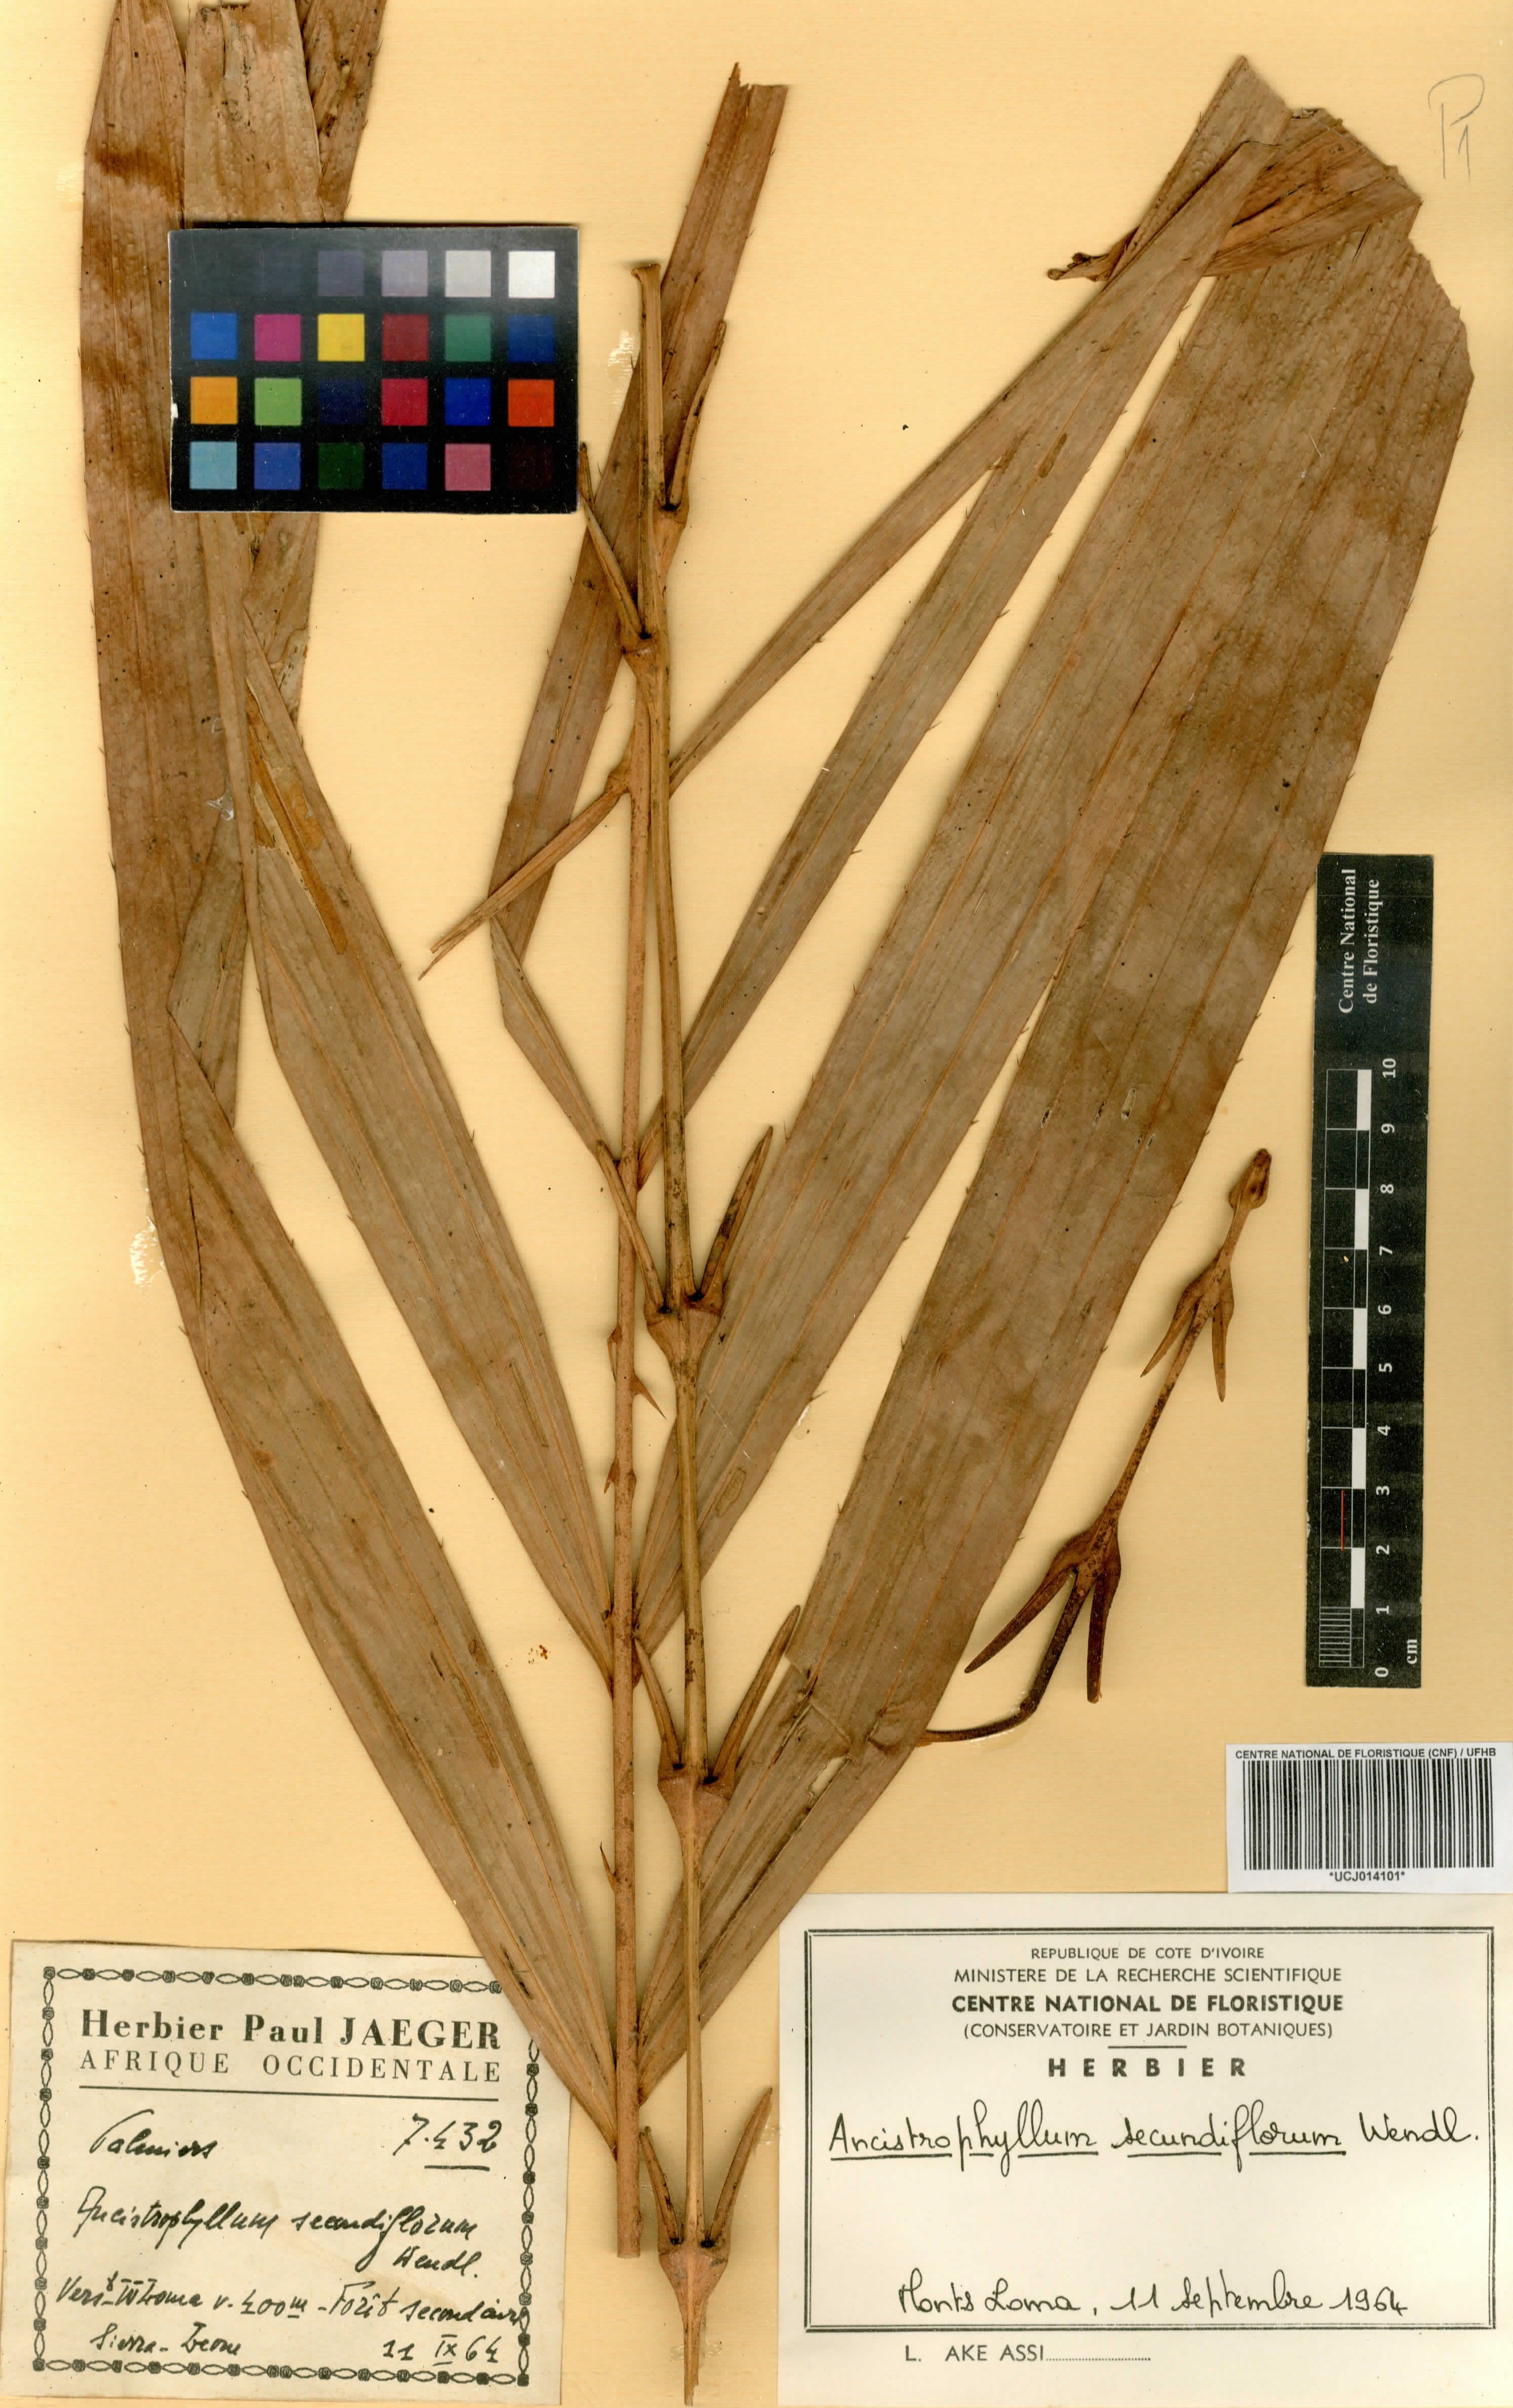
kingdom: Plantae
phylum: Tracheophyta
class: Liliopsida
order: Arecales
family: Arecaceae
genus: Laccosperma
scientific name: Laccosperma secundiflorum
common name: Rattan
